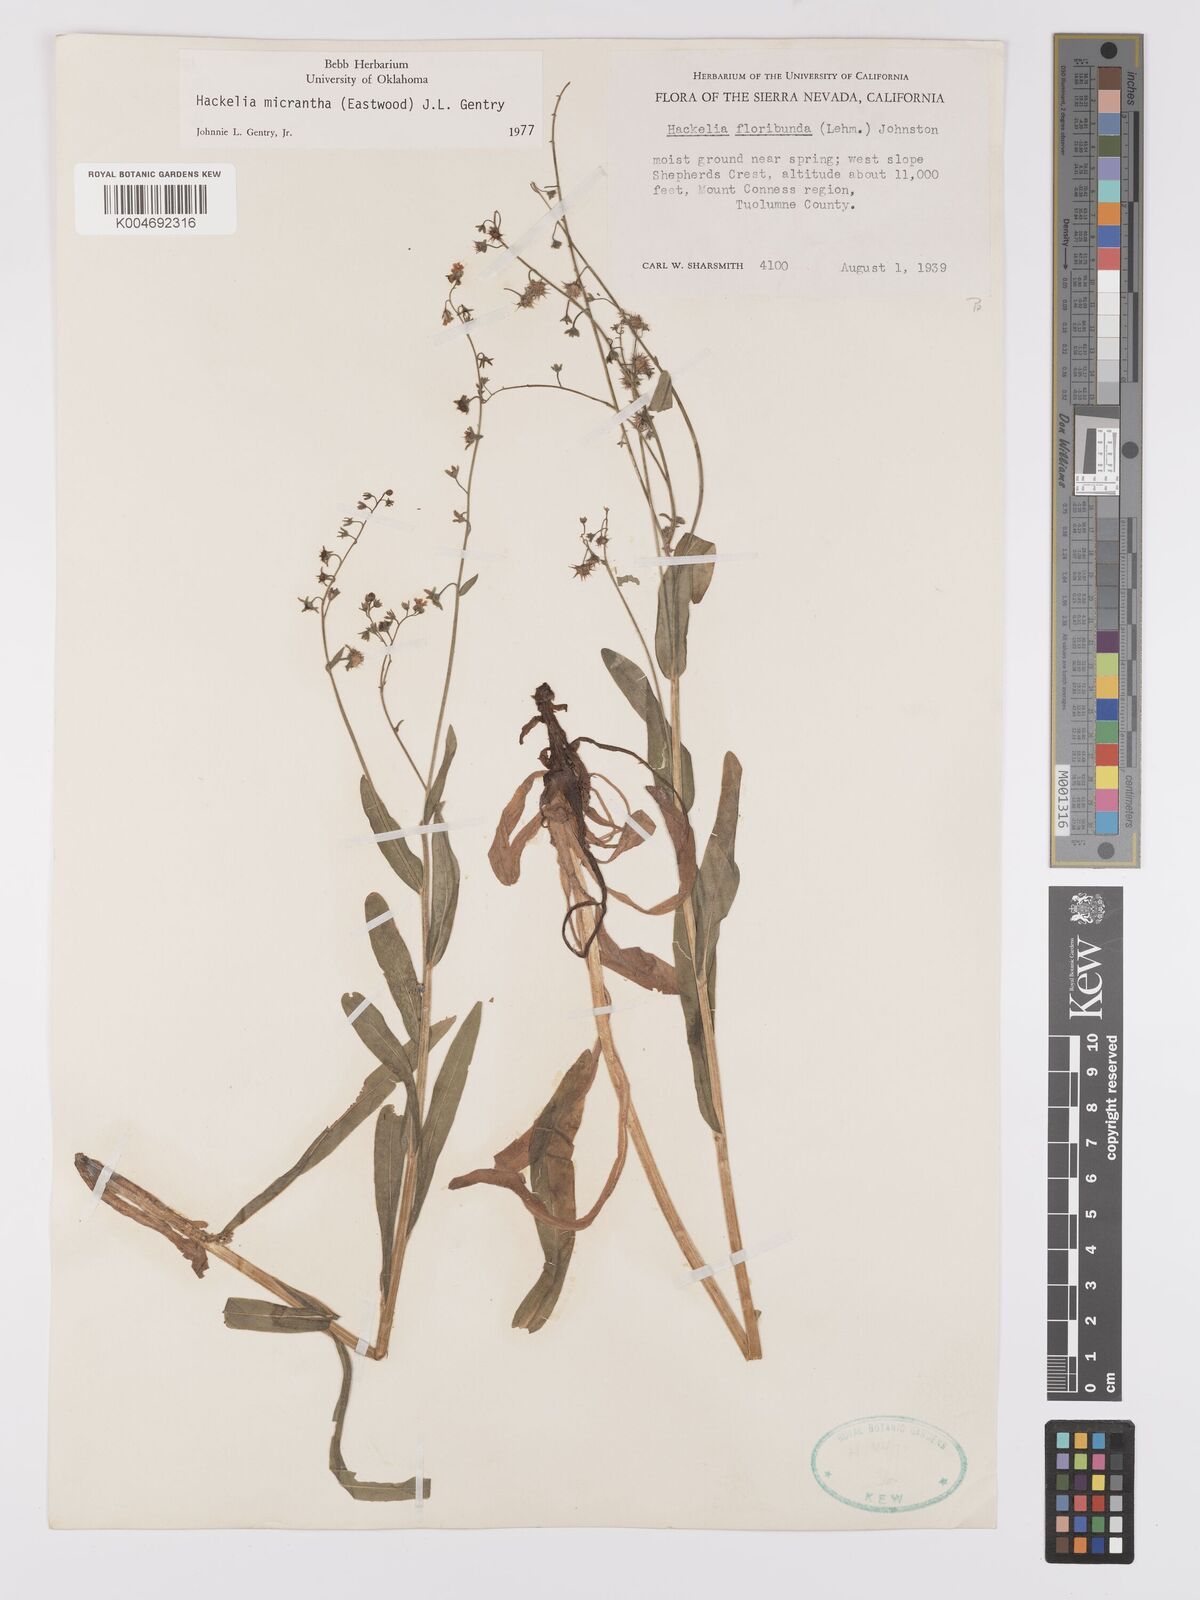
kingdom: Plantae
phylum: Tracheophyta
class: Magnoliopsida
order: Boraginales
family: Boraginaceae
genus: Hackelia
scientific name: Hackelia diffusa
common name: Spreading hackelia
